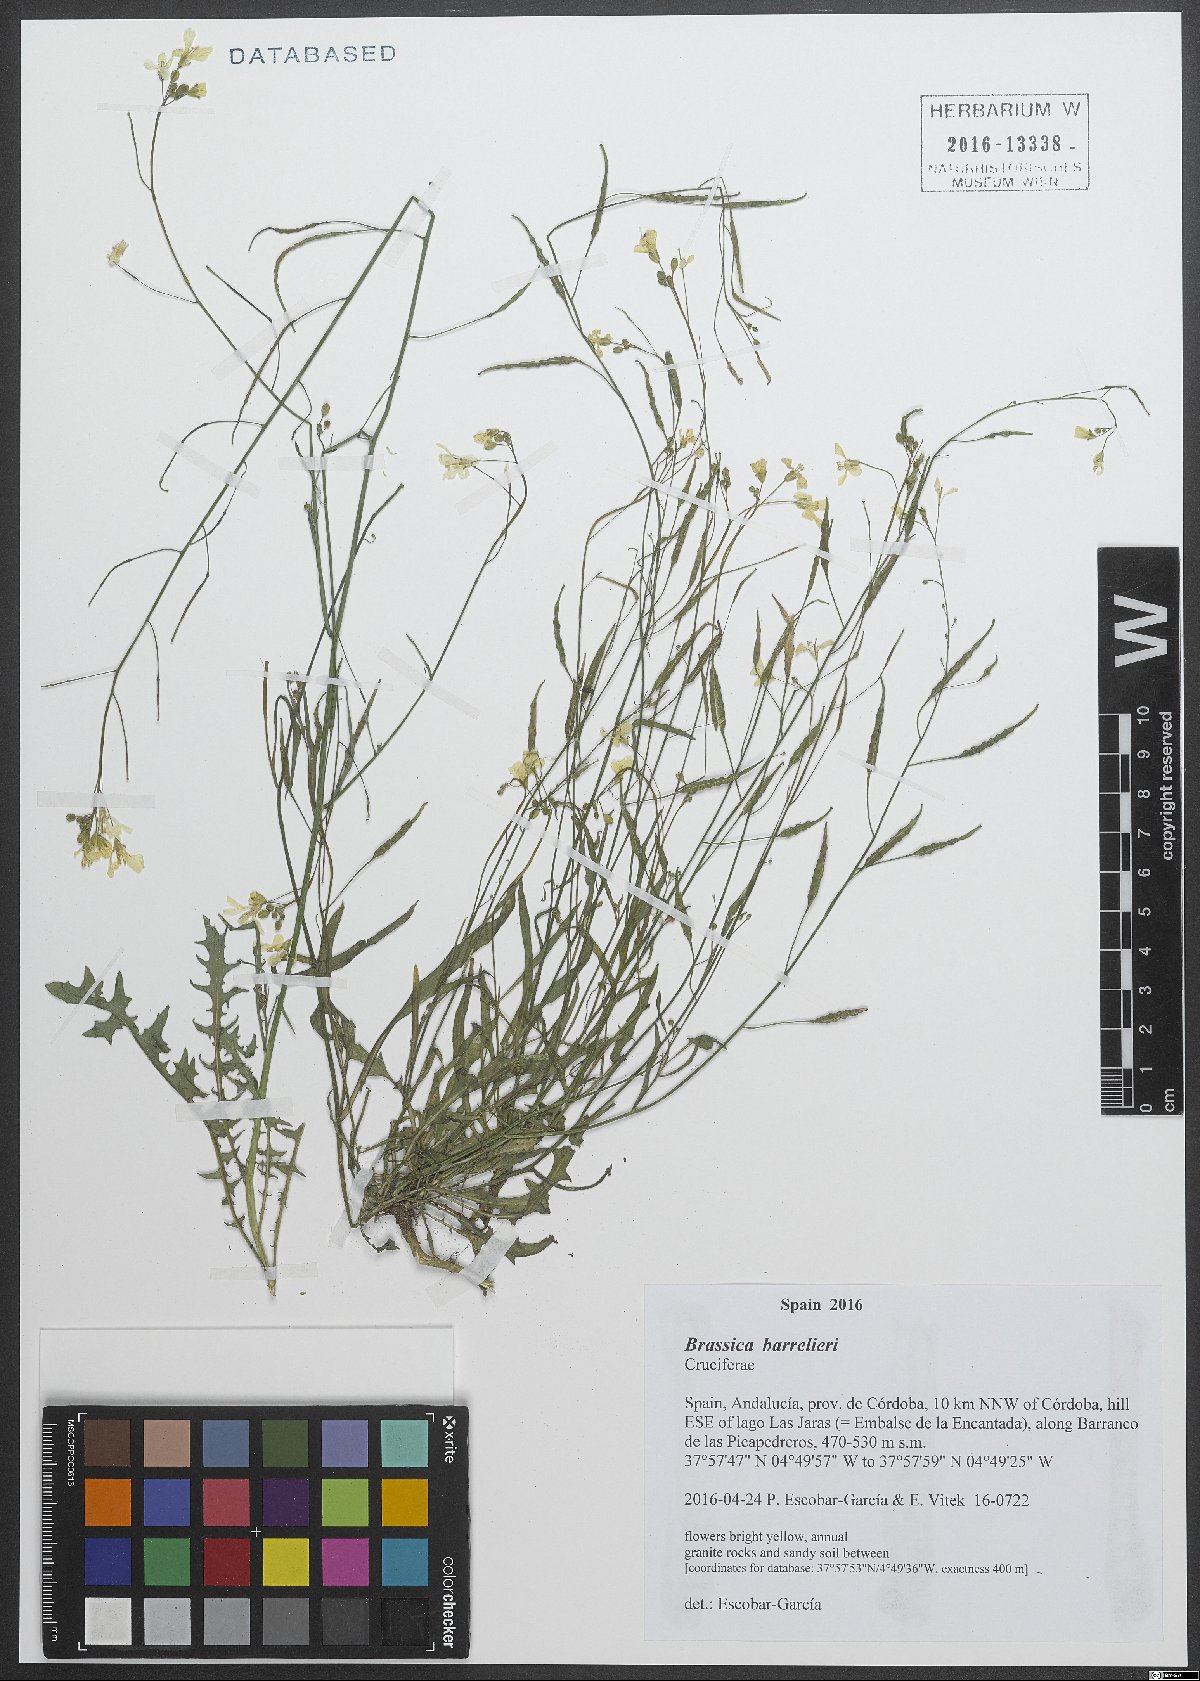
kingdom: Plantae
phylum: Tracheophyta
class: Magnoliopsida
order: Brassicales
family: Brassicaceae
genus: Brassica
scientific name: Brassica barrelieri
